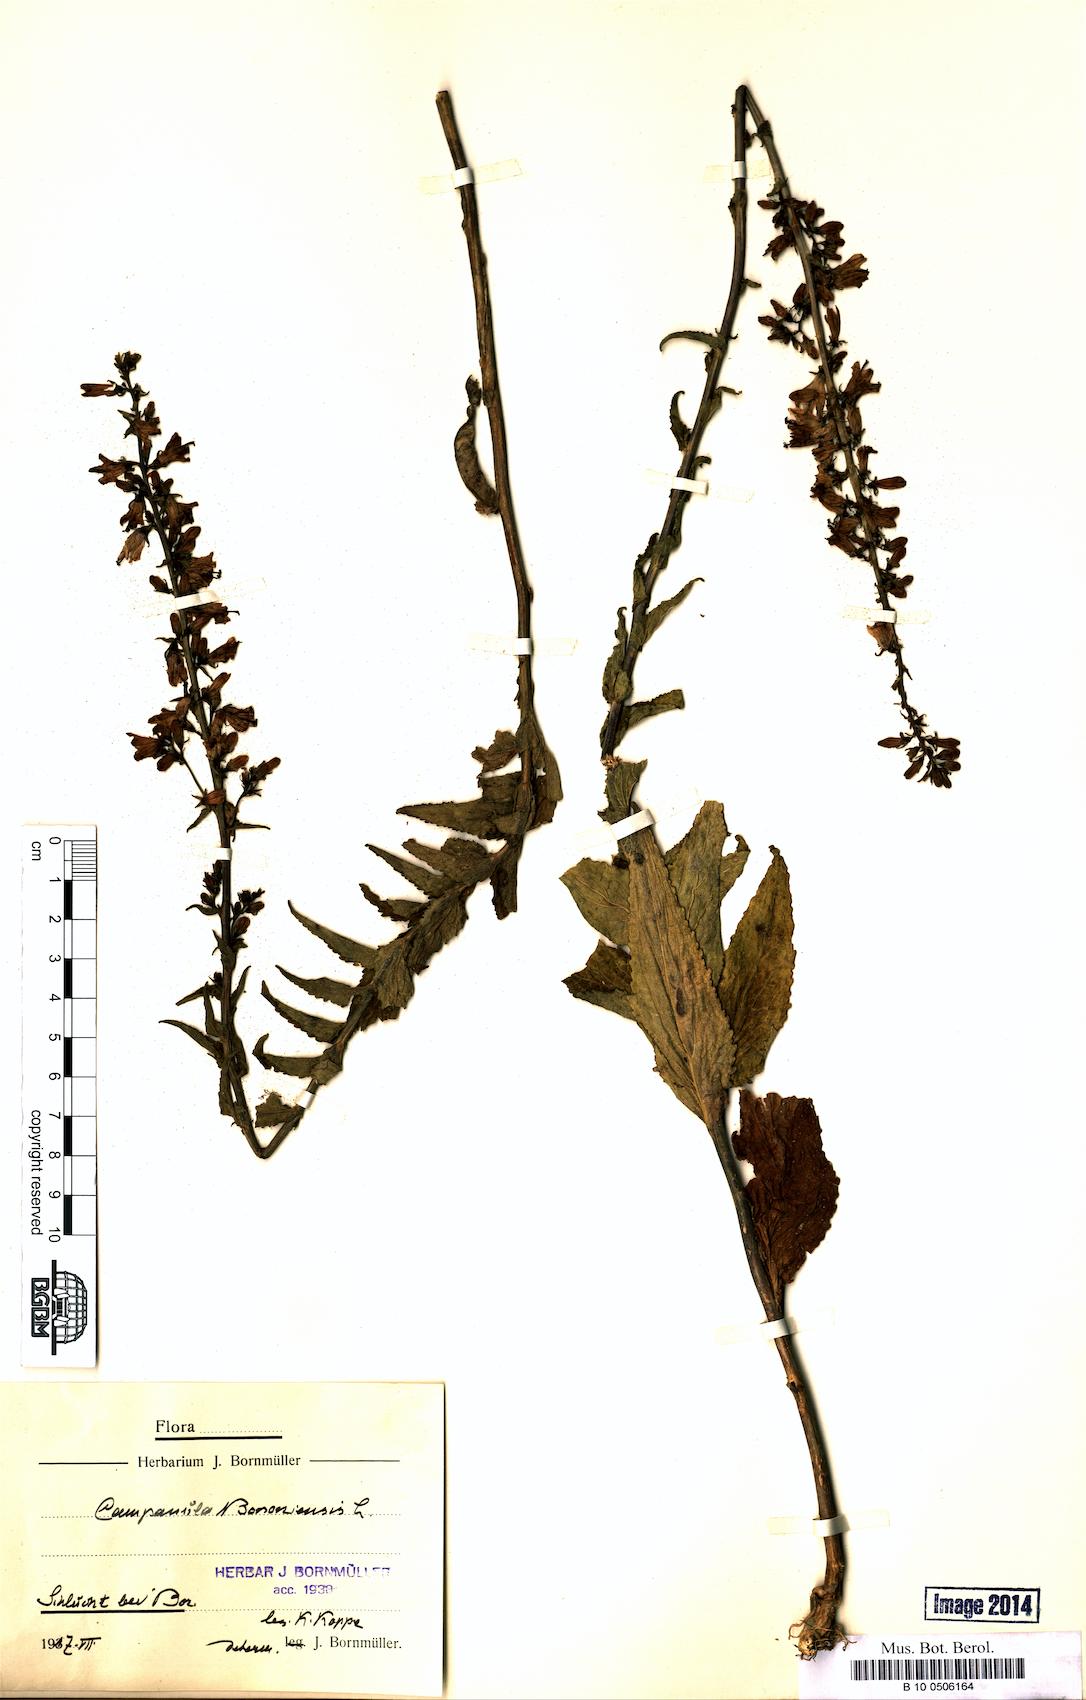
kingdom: Plantae
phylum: Tracheophyta
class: Magnoliopsida
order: Asterales
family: Campanulaceae
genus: Campanula
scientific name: Campanula bononiensis
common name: Pale bellflower
